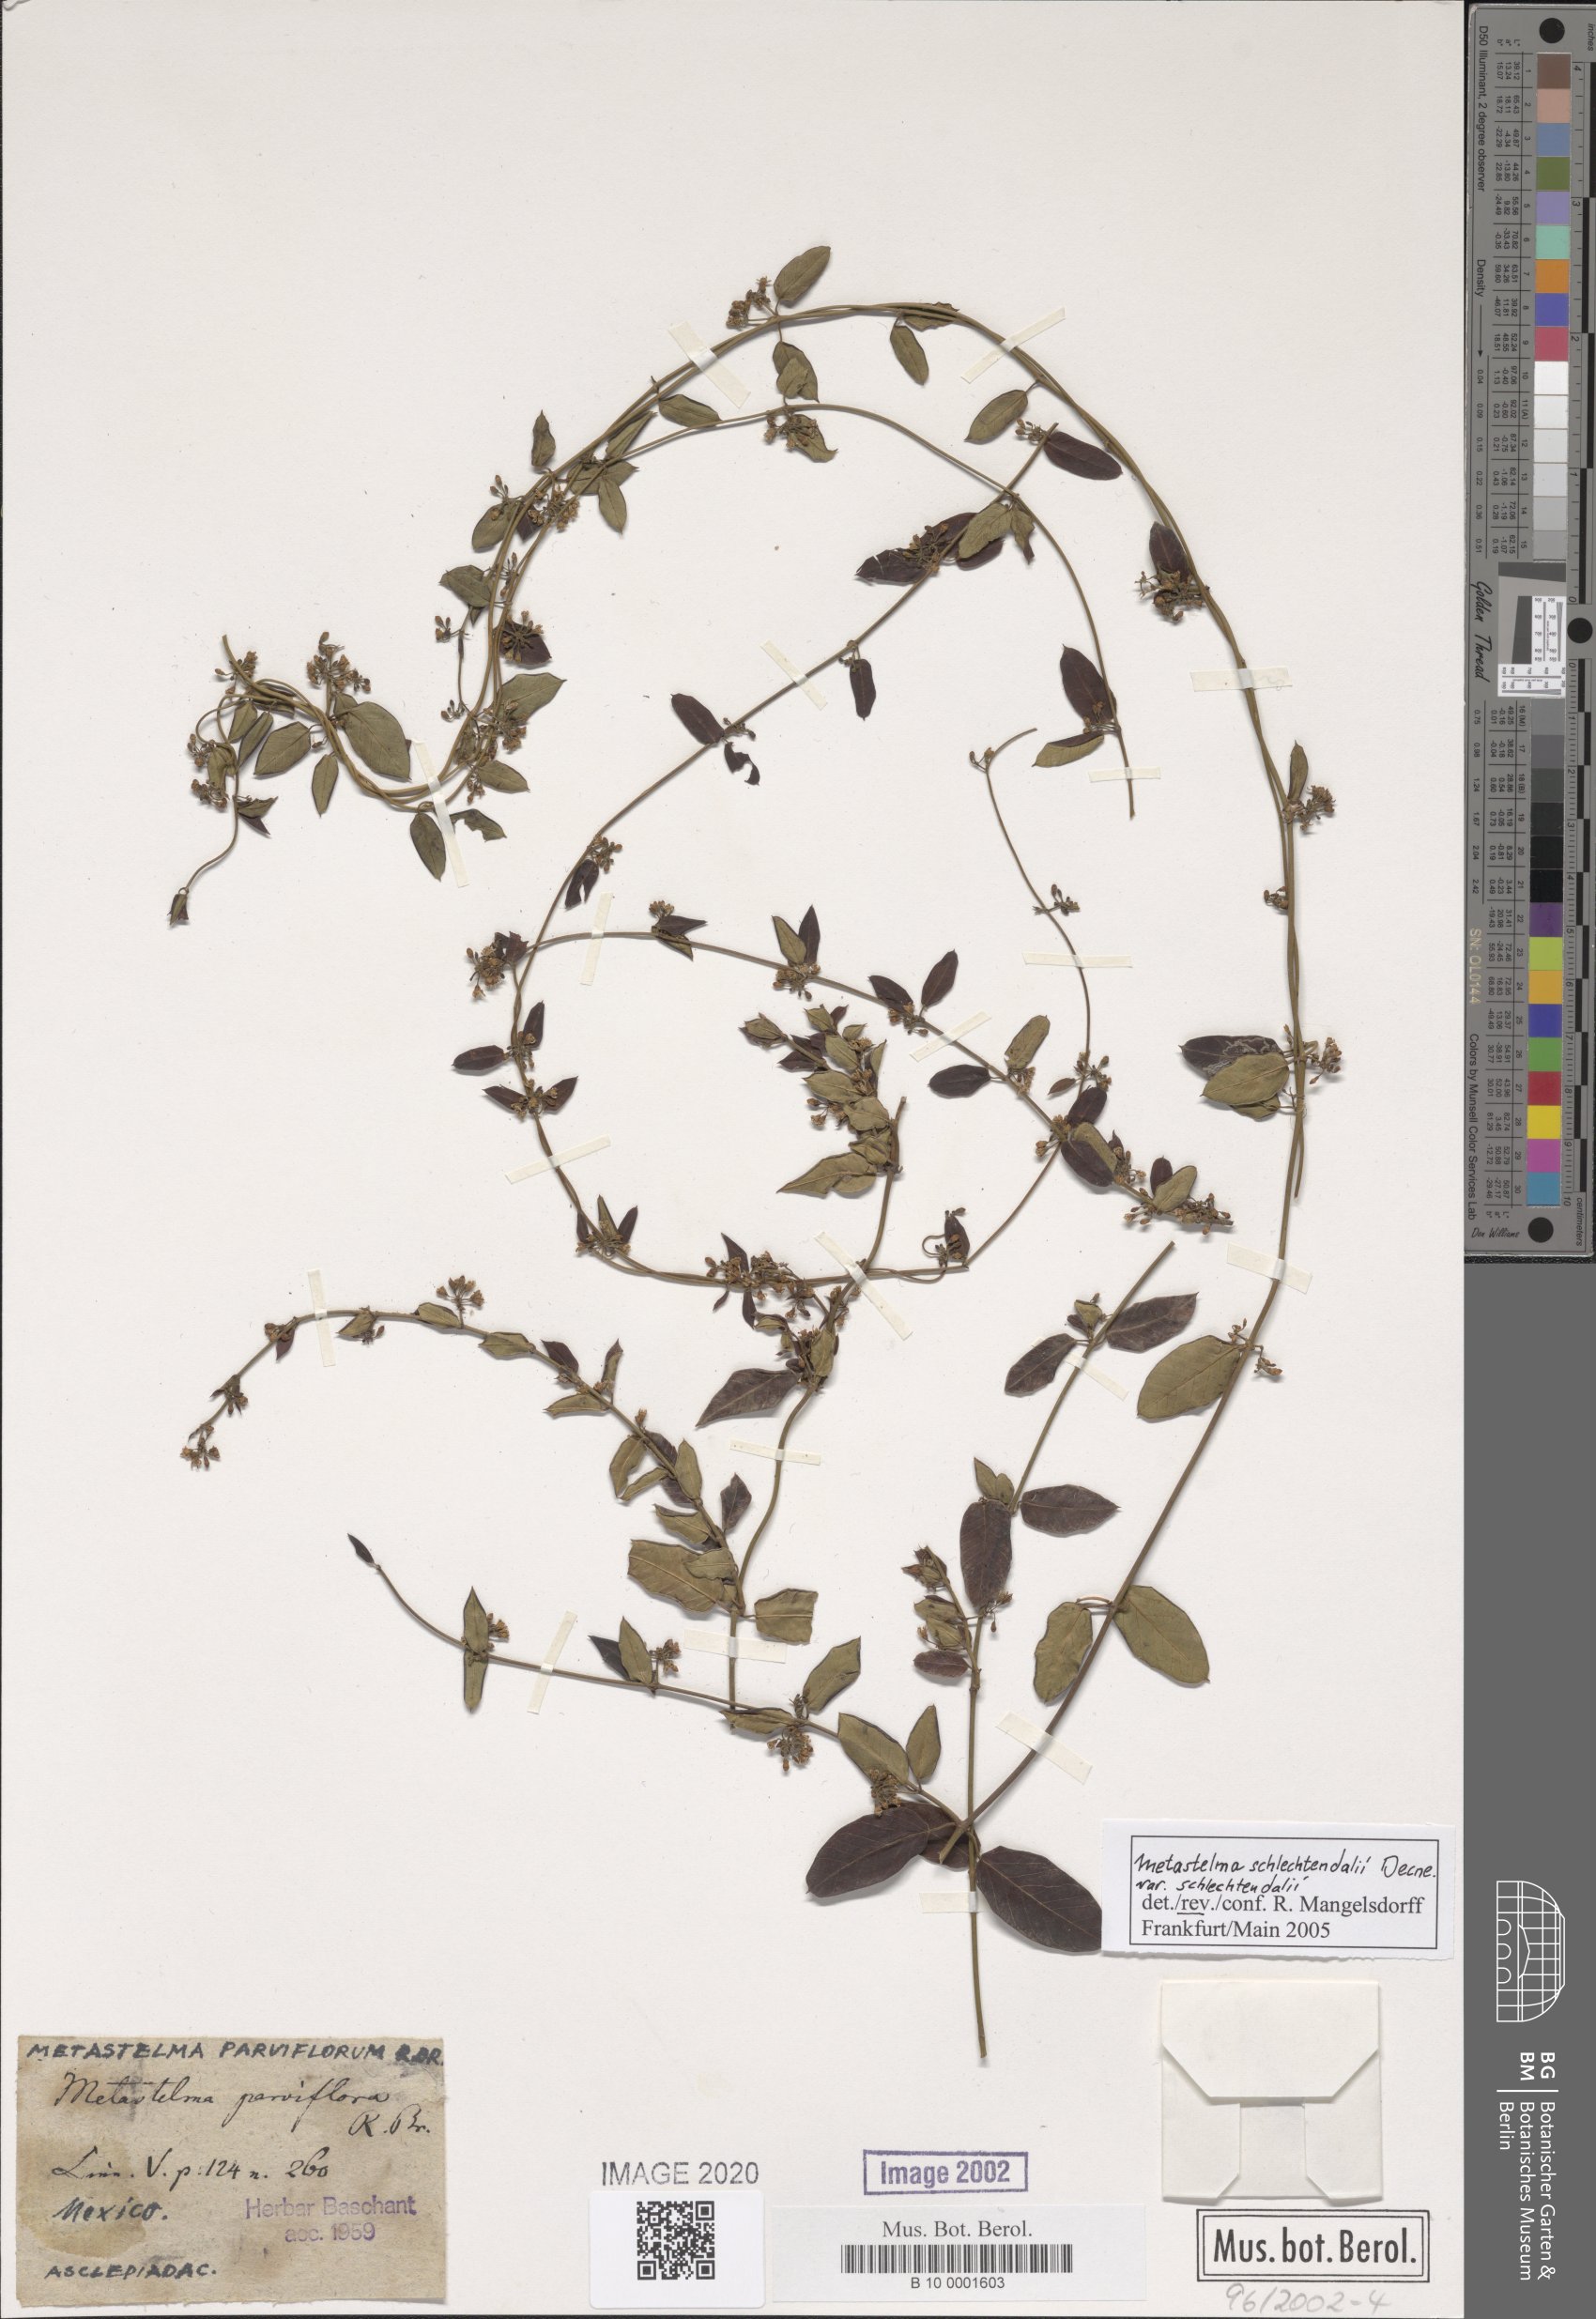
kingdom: Plantae
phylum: Tracheophyta
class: Magnoliopsida
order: Gentianales
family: Apocynaceae
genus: Metastelma
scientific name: Metastelma parviflorum
